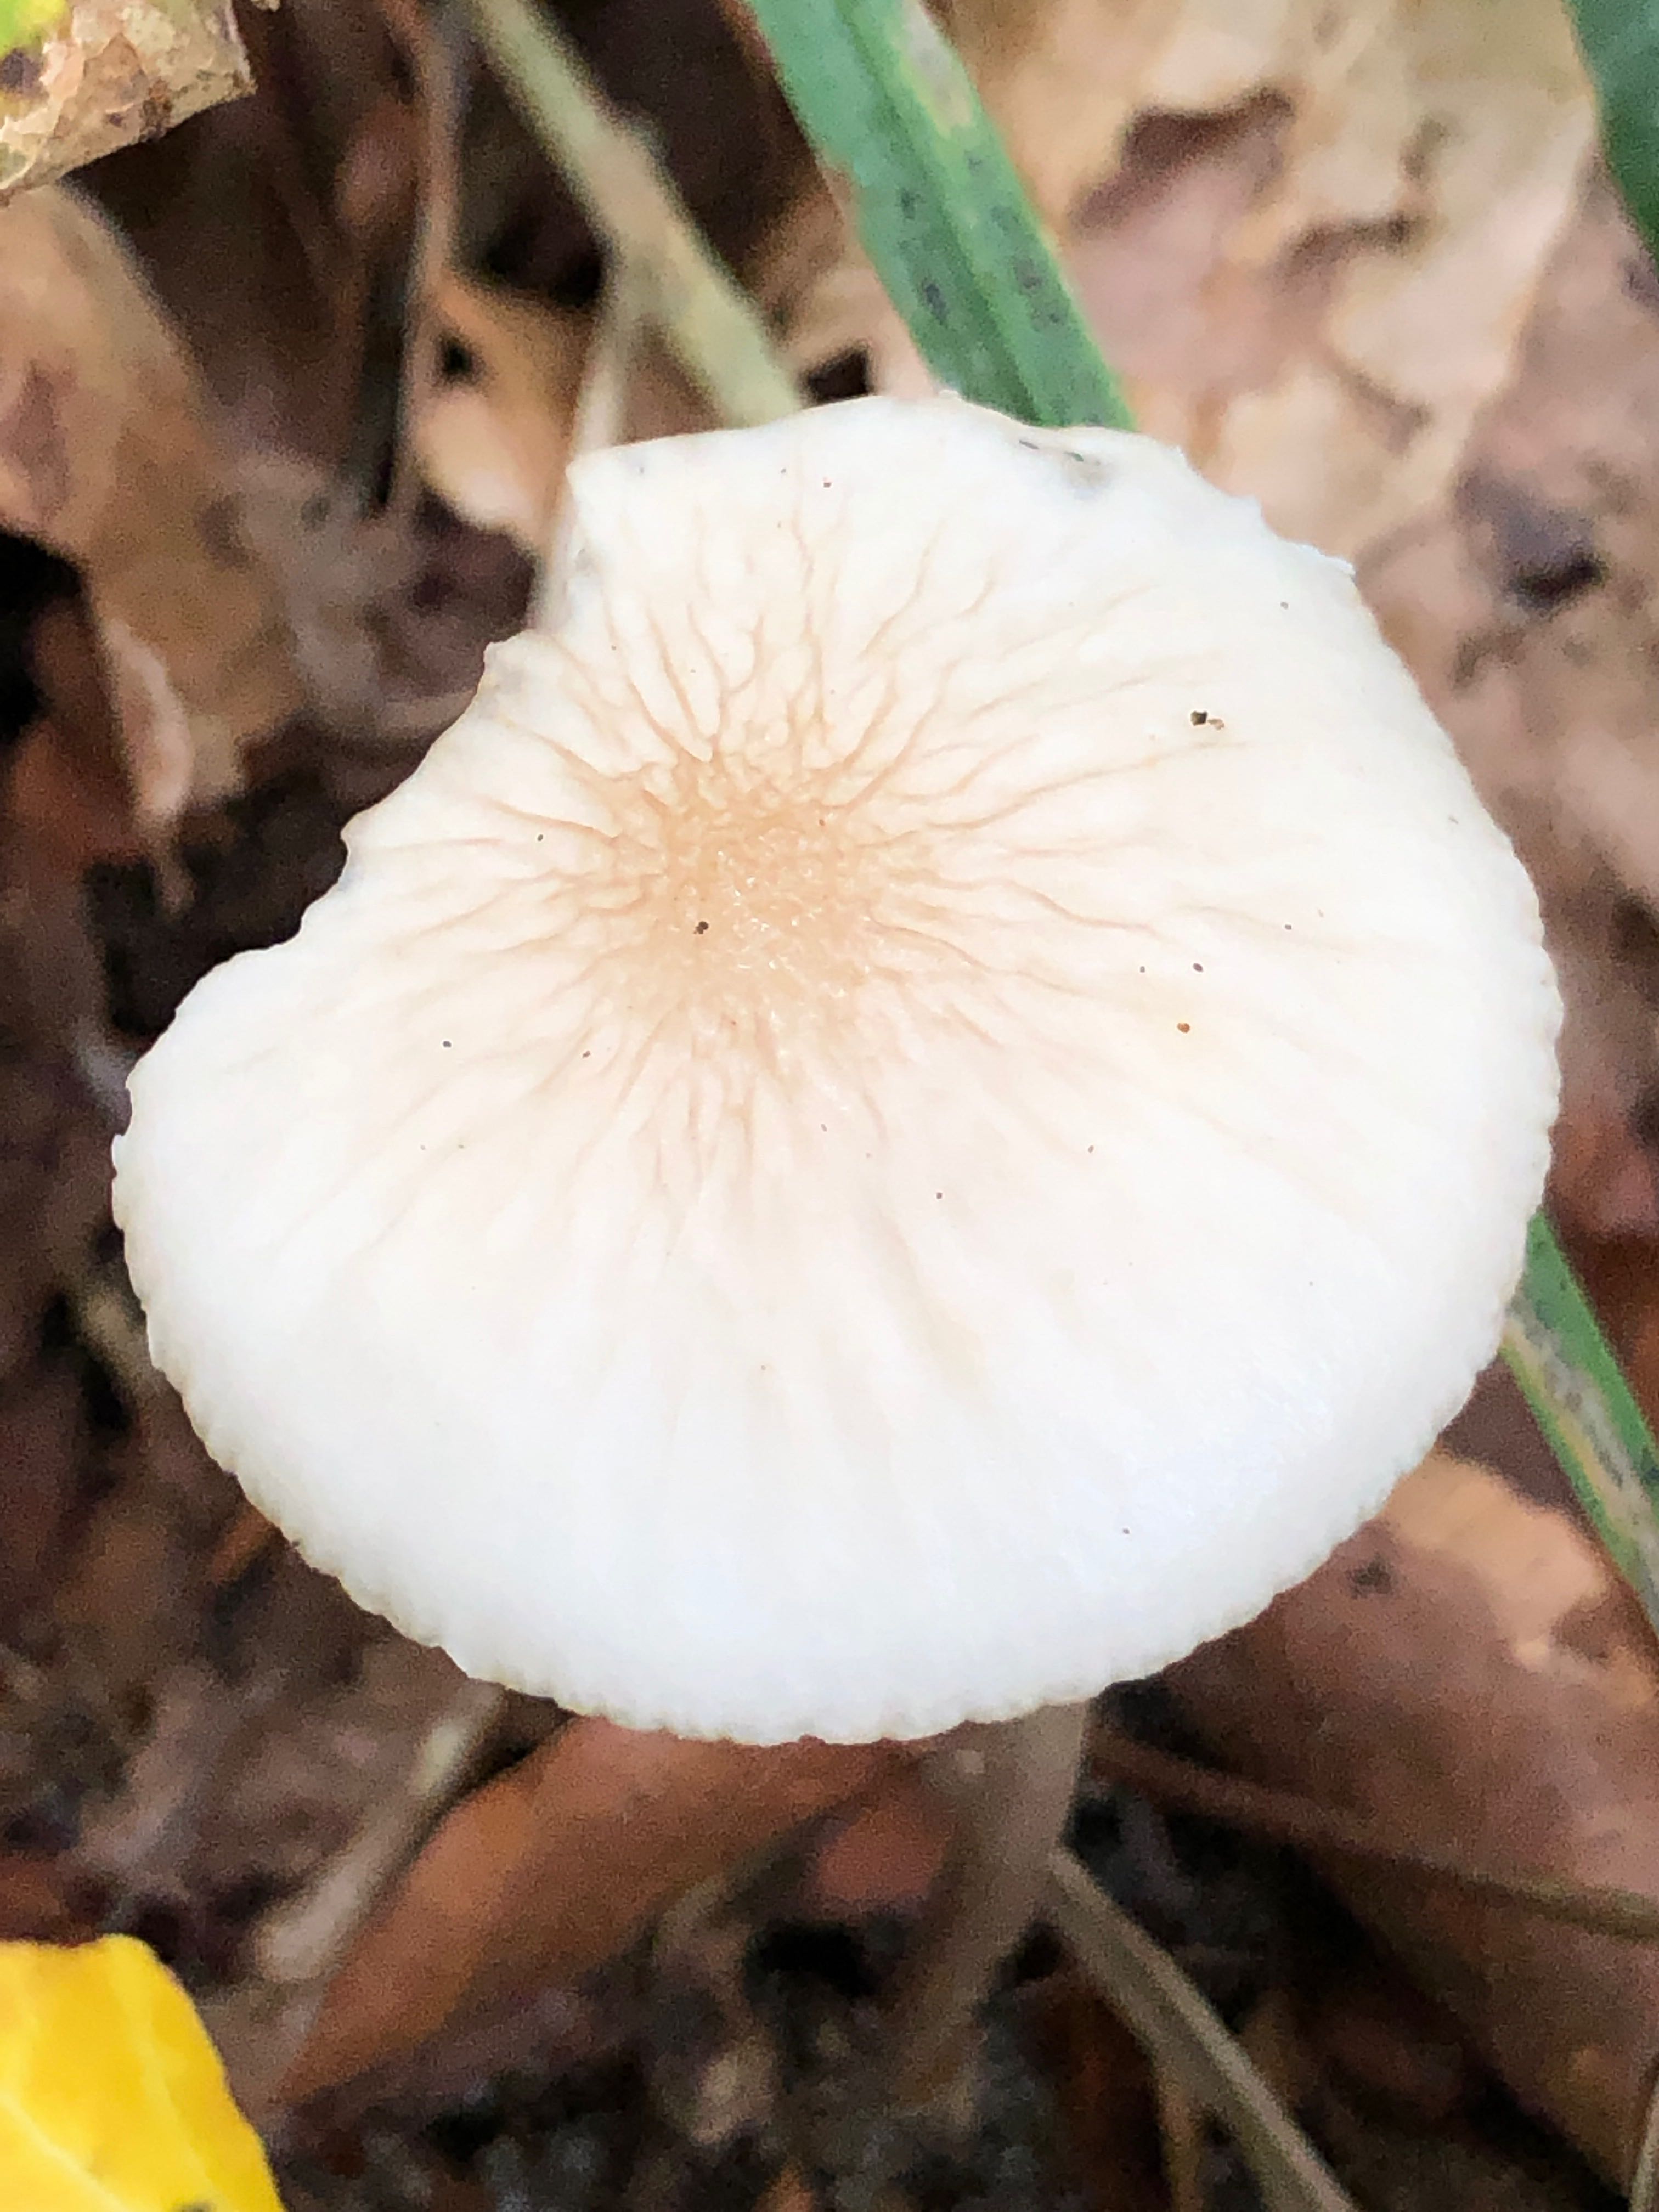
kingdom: Fungi
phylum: Basidiomycota
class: Agaricomycetes
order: Agaricales
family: Physalacriaceae
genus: Hymenopellis
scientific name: Hymenopellis radicata
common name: almindelig pælerodshat
